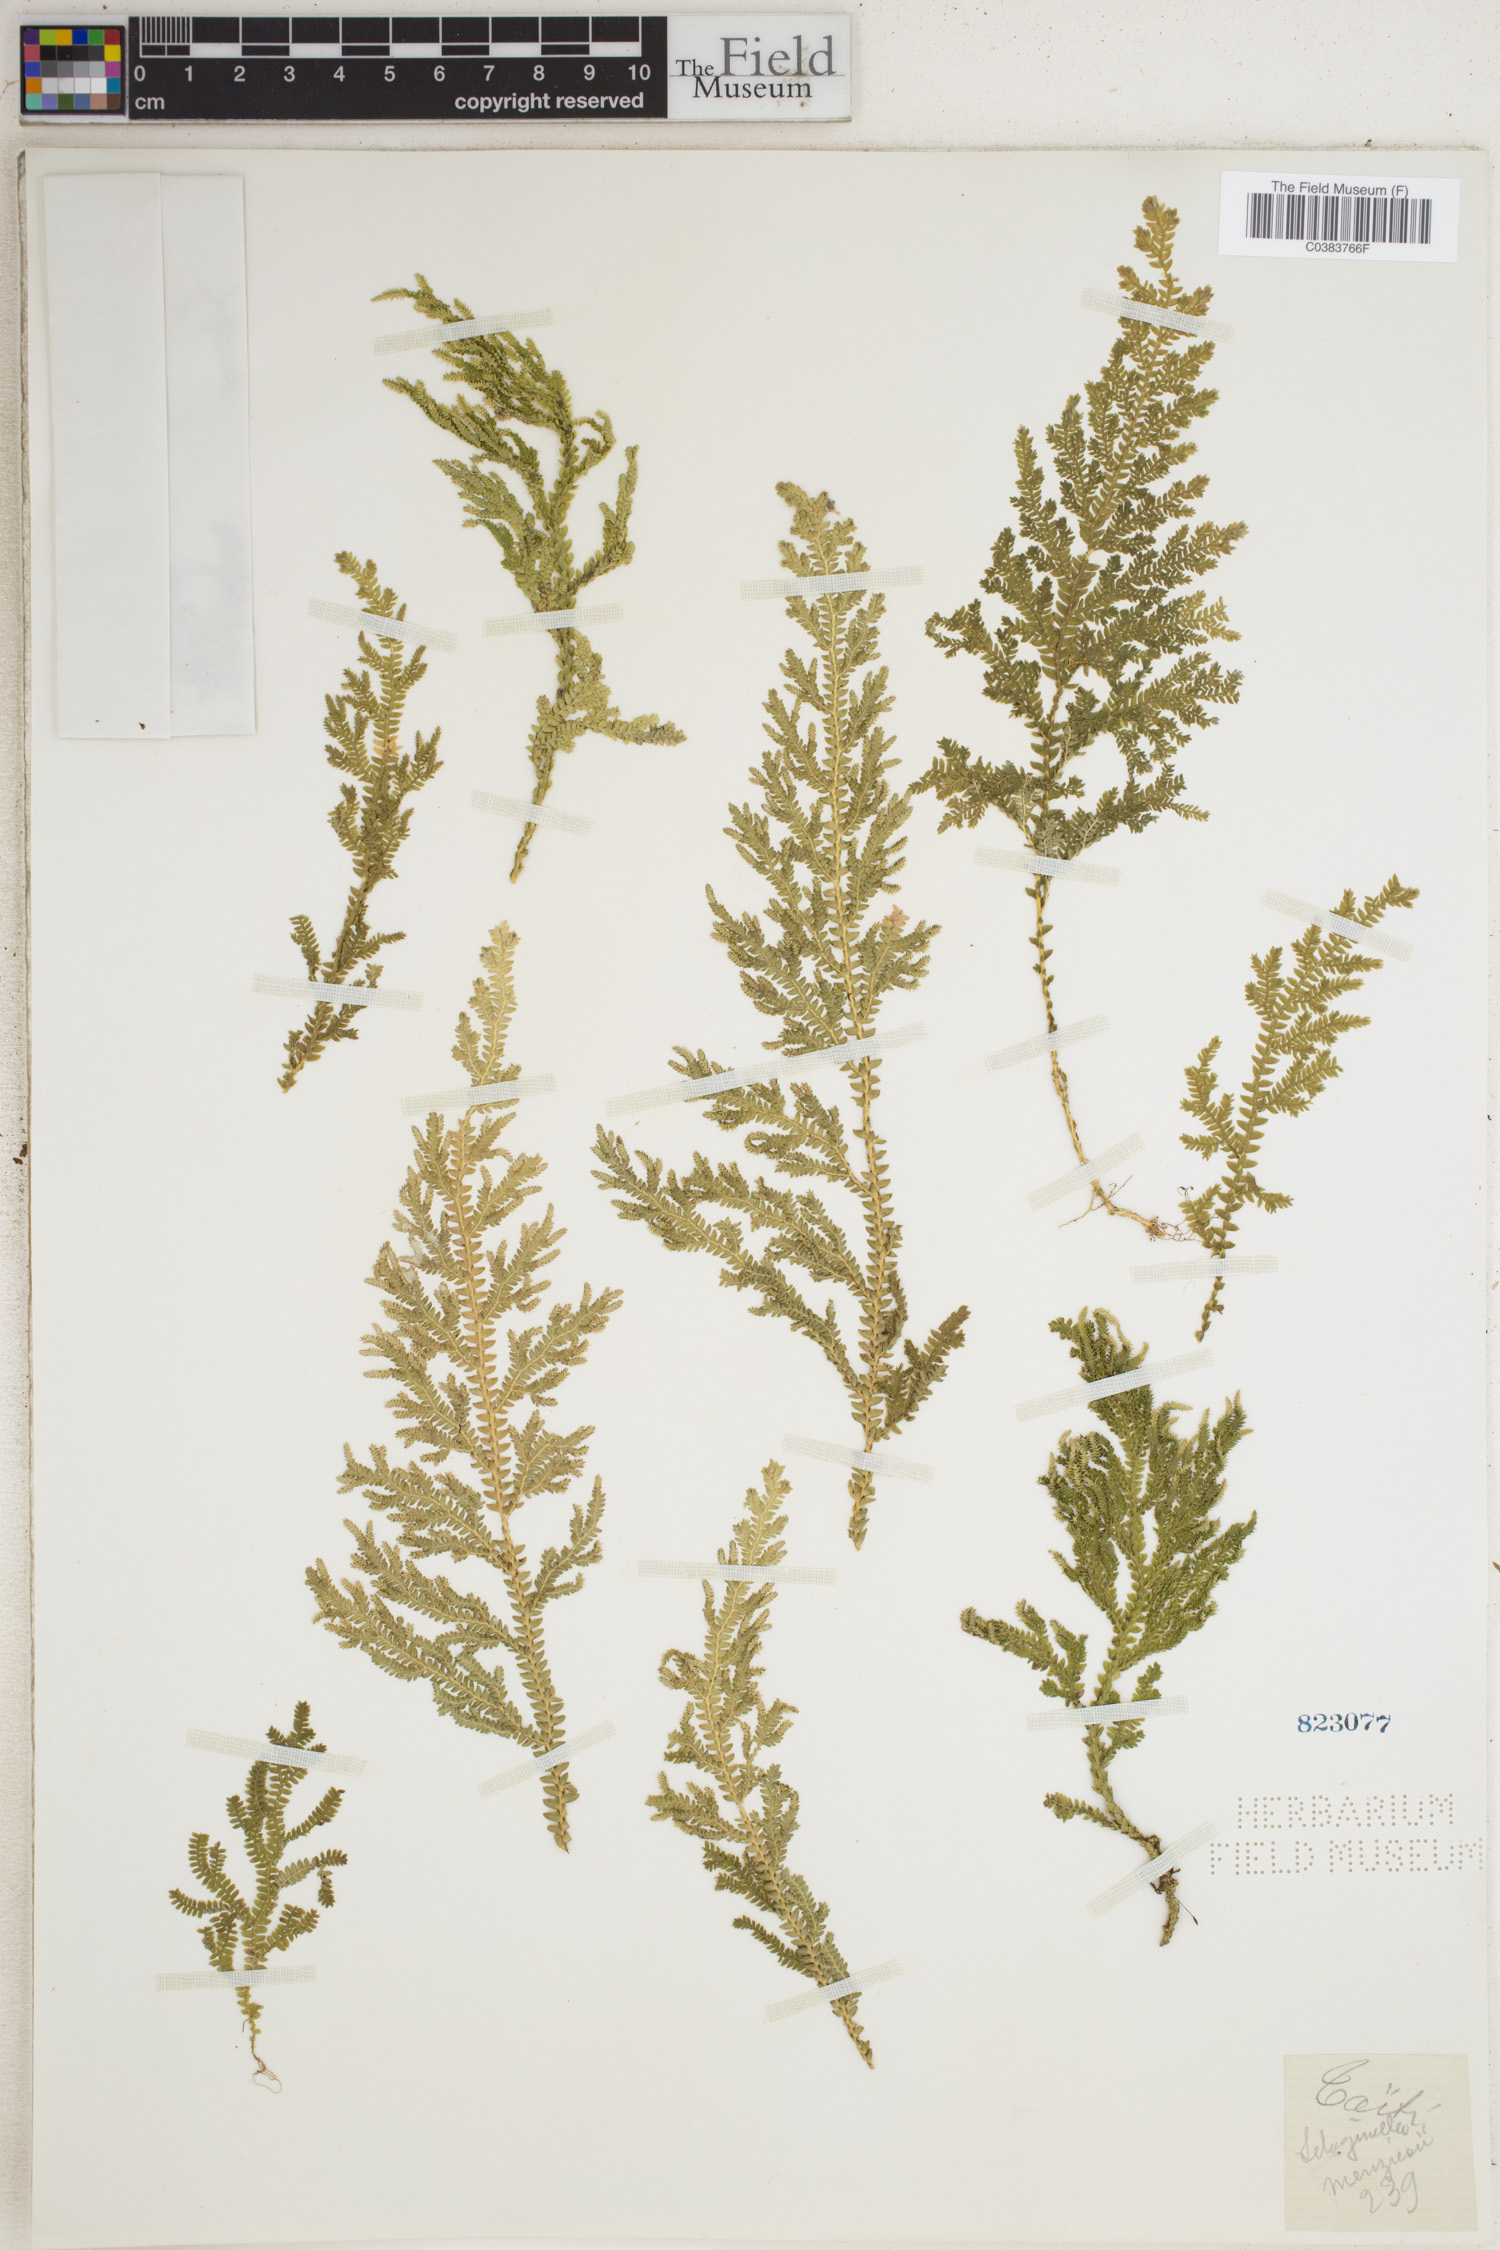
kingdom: Plantae
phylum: Tracheophyta
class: Lycopodiopsida
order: Selaginellales
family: Selaginellaceae
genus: Selaginella
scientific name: Selaginella menziesii
